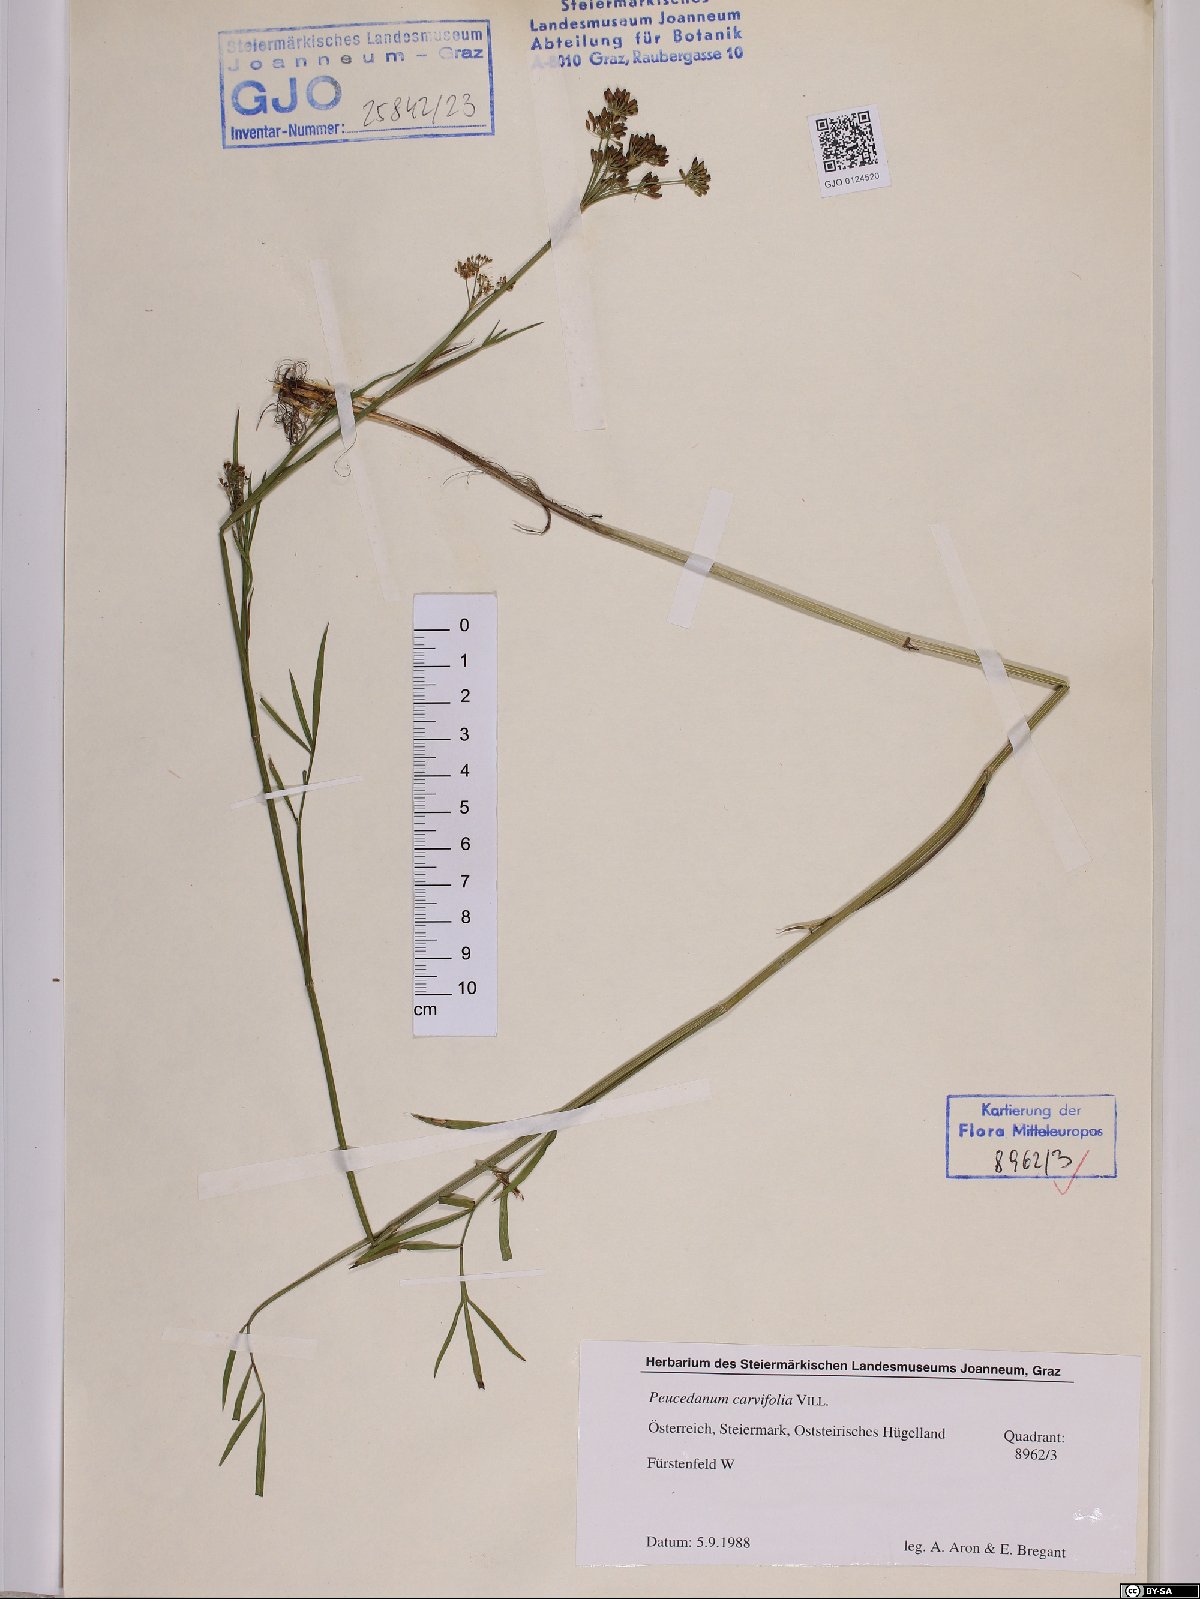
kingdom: Plantae
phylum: Tracheophyta
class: Magnoliopsida
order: Apiales
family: Apiaceae
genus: Dichoropetalum
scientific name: Dichoropetalum carvifolia
